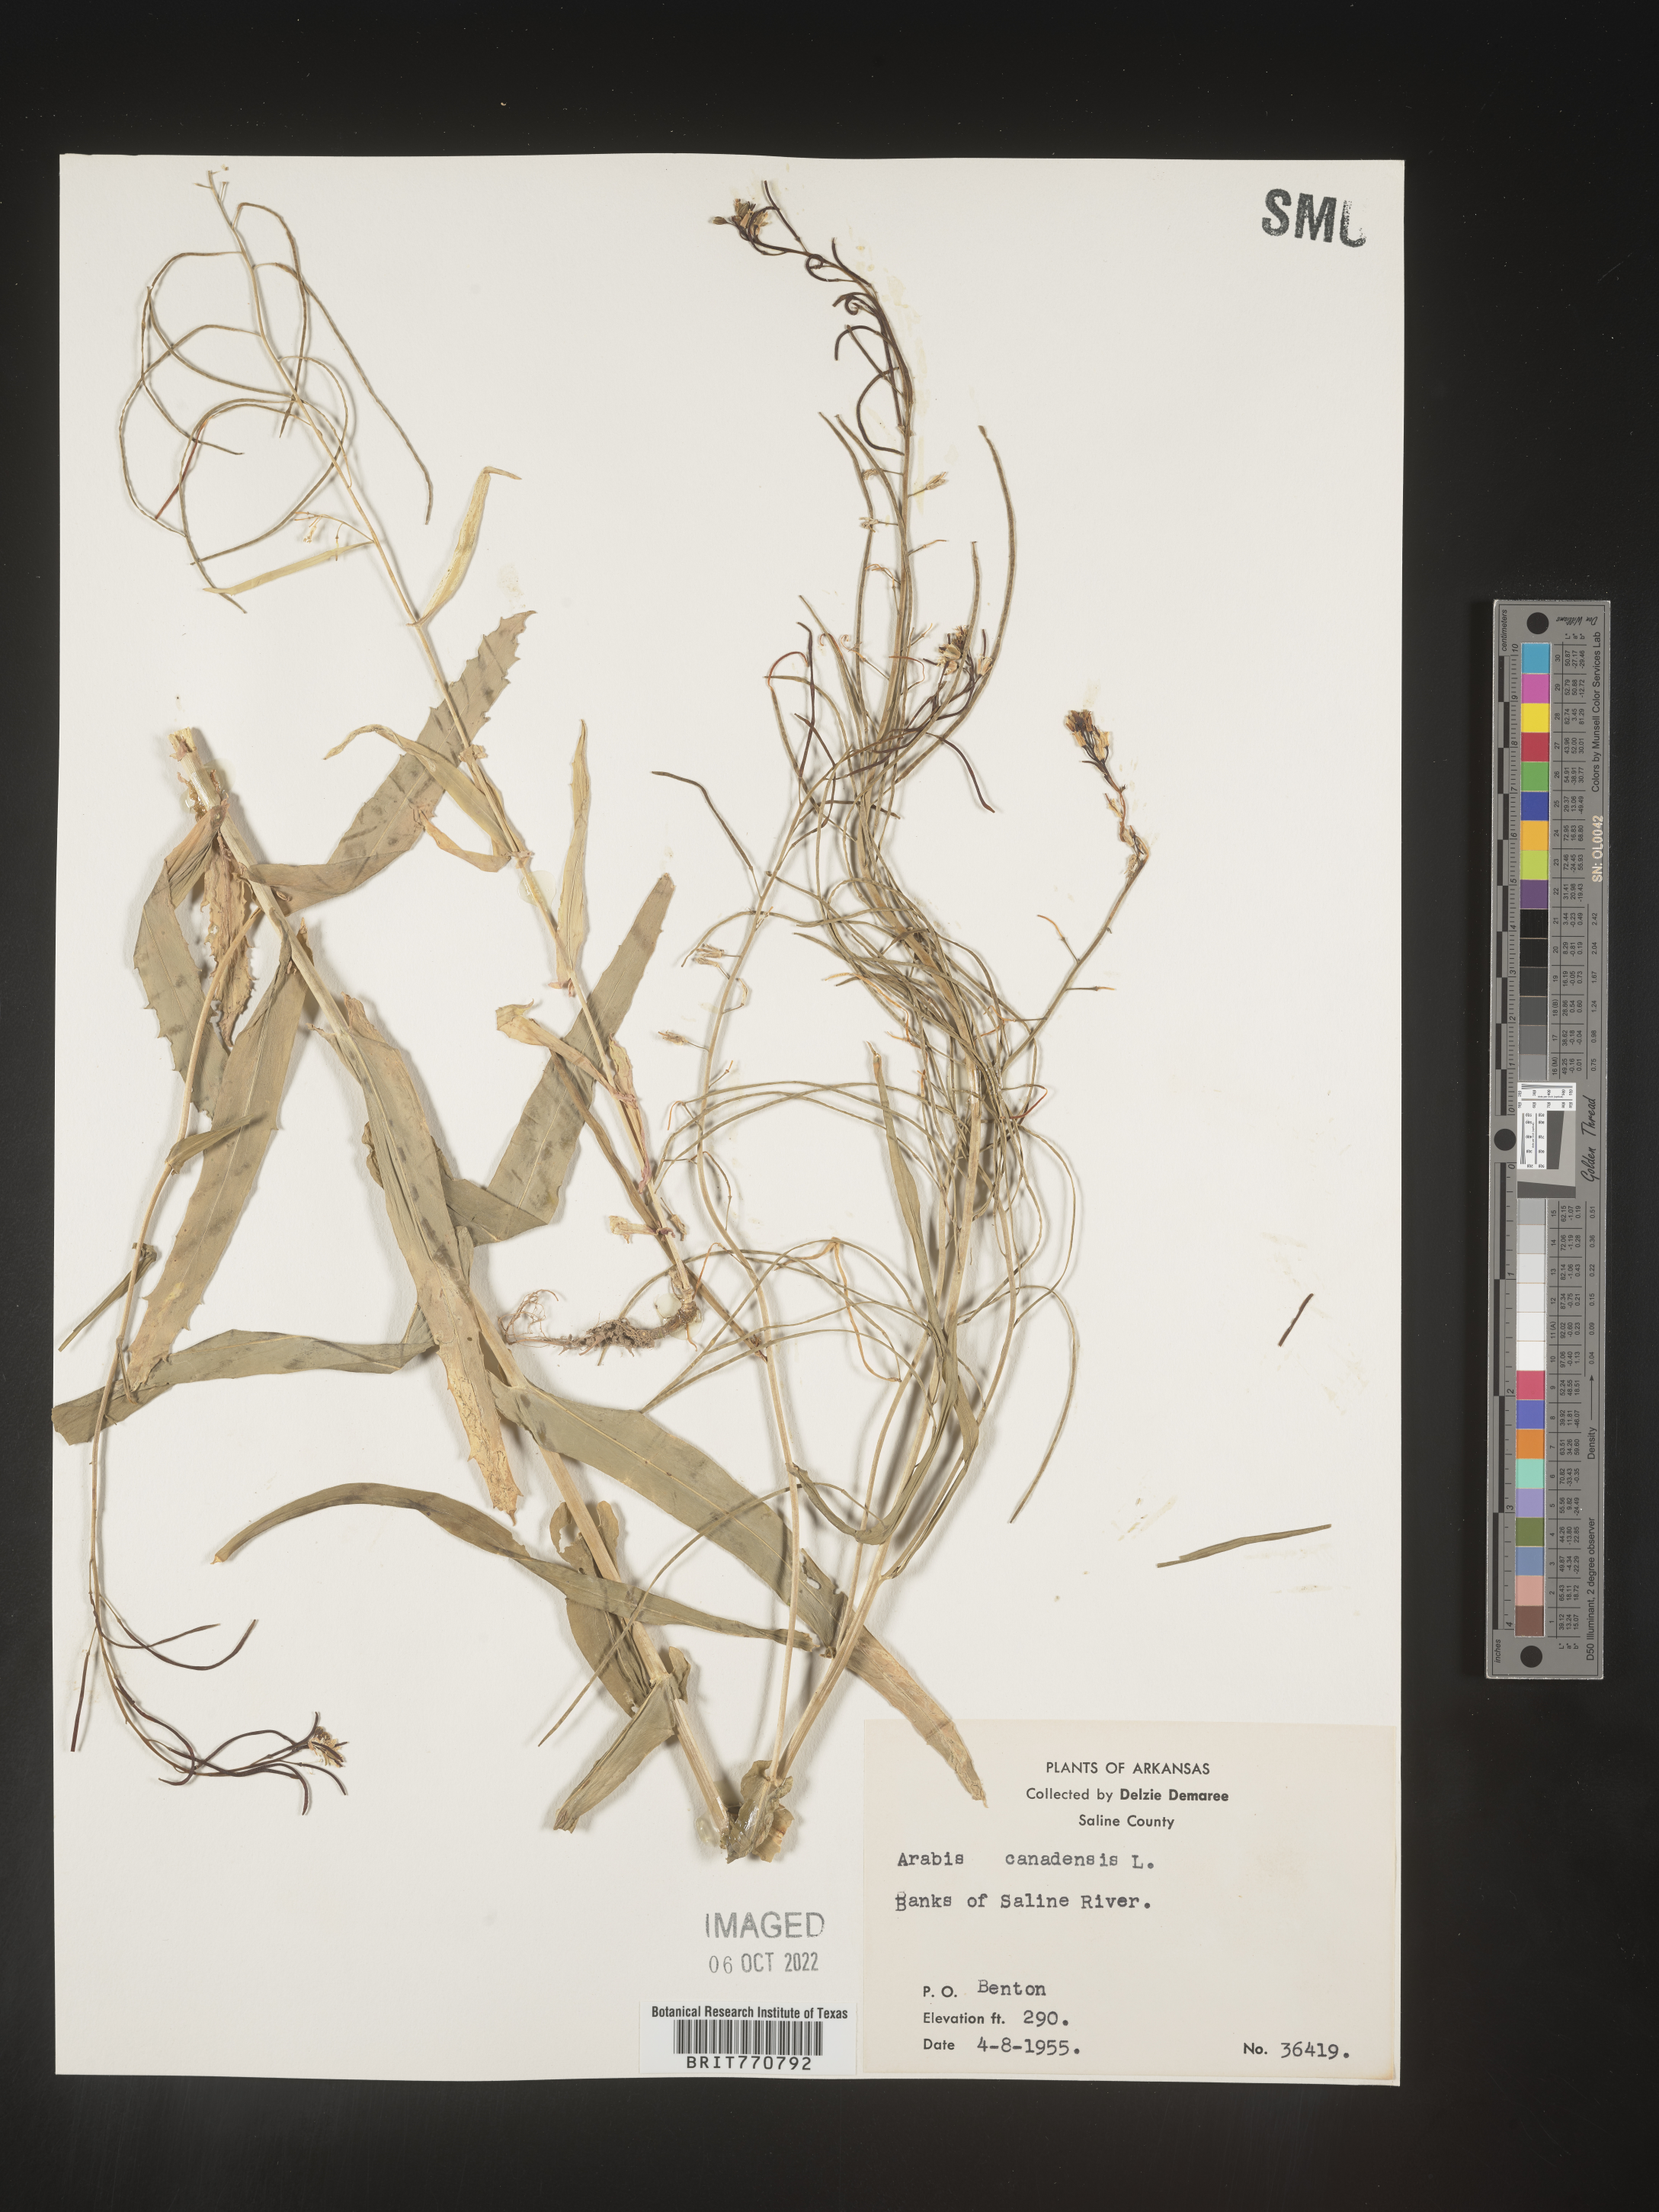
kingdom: Plantae
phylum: Tracheophyta
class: Magnoliopsida
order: Brassicales
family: Brassicaceae
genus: Borodinia
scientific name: Borodinia canadensis
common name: Sicklepod
